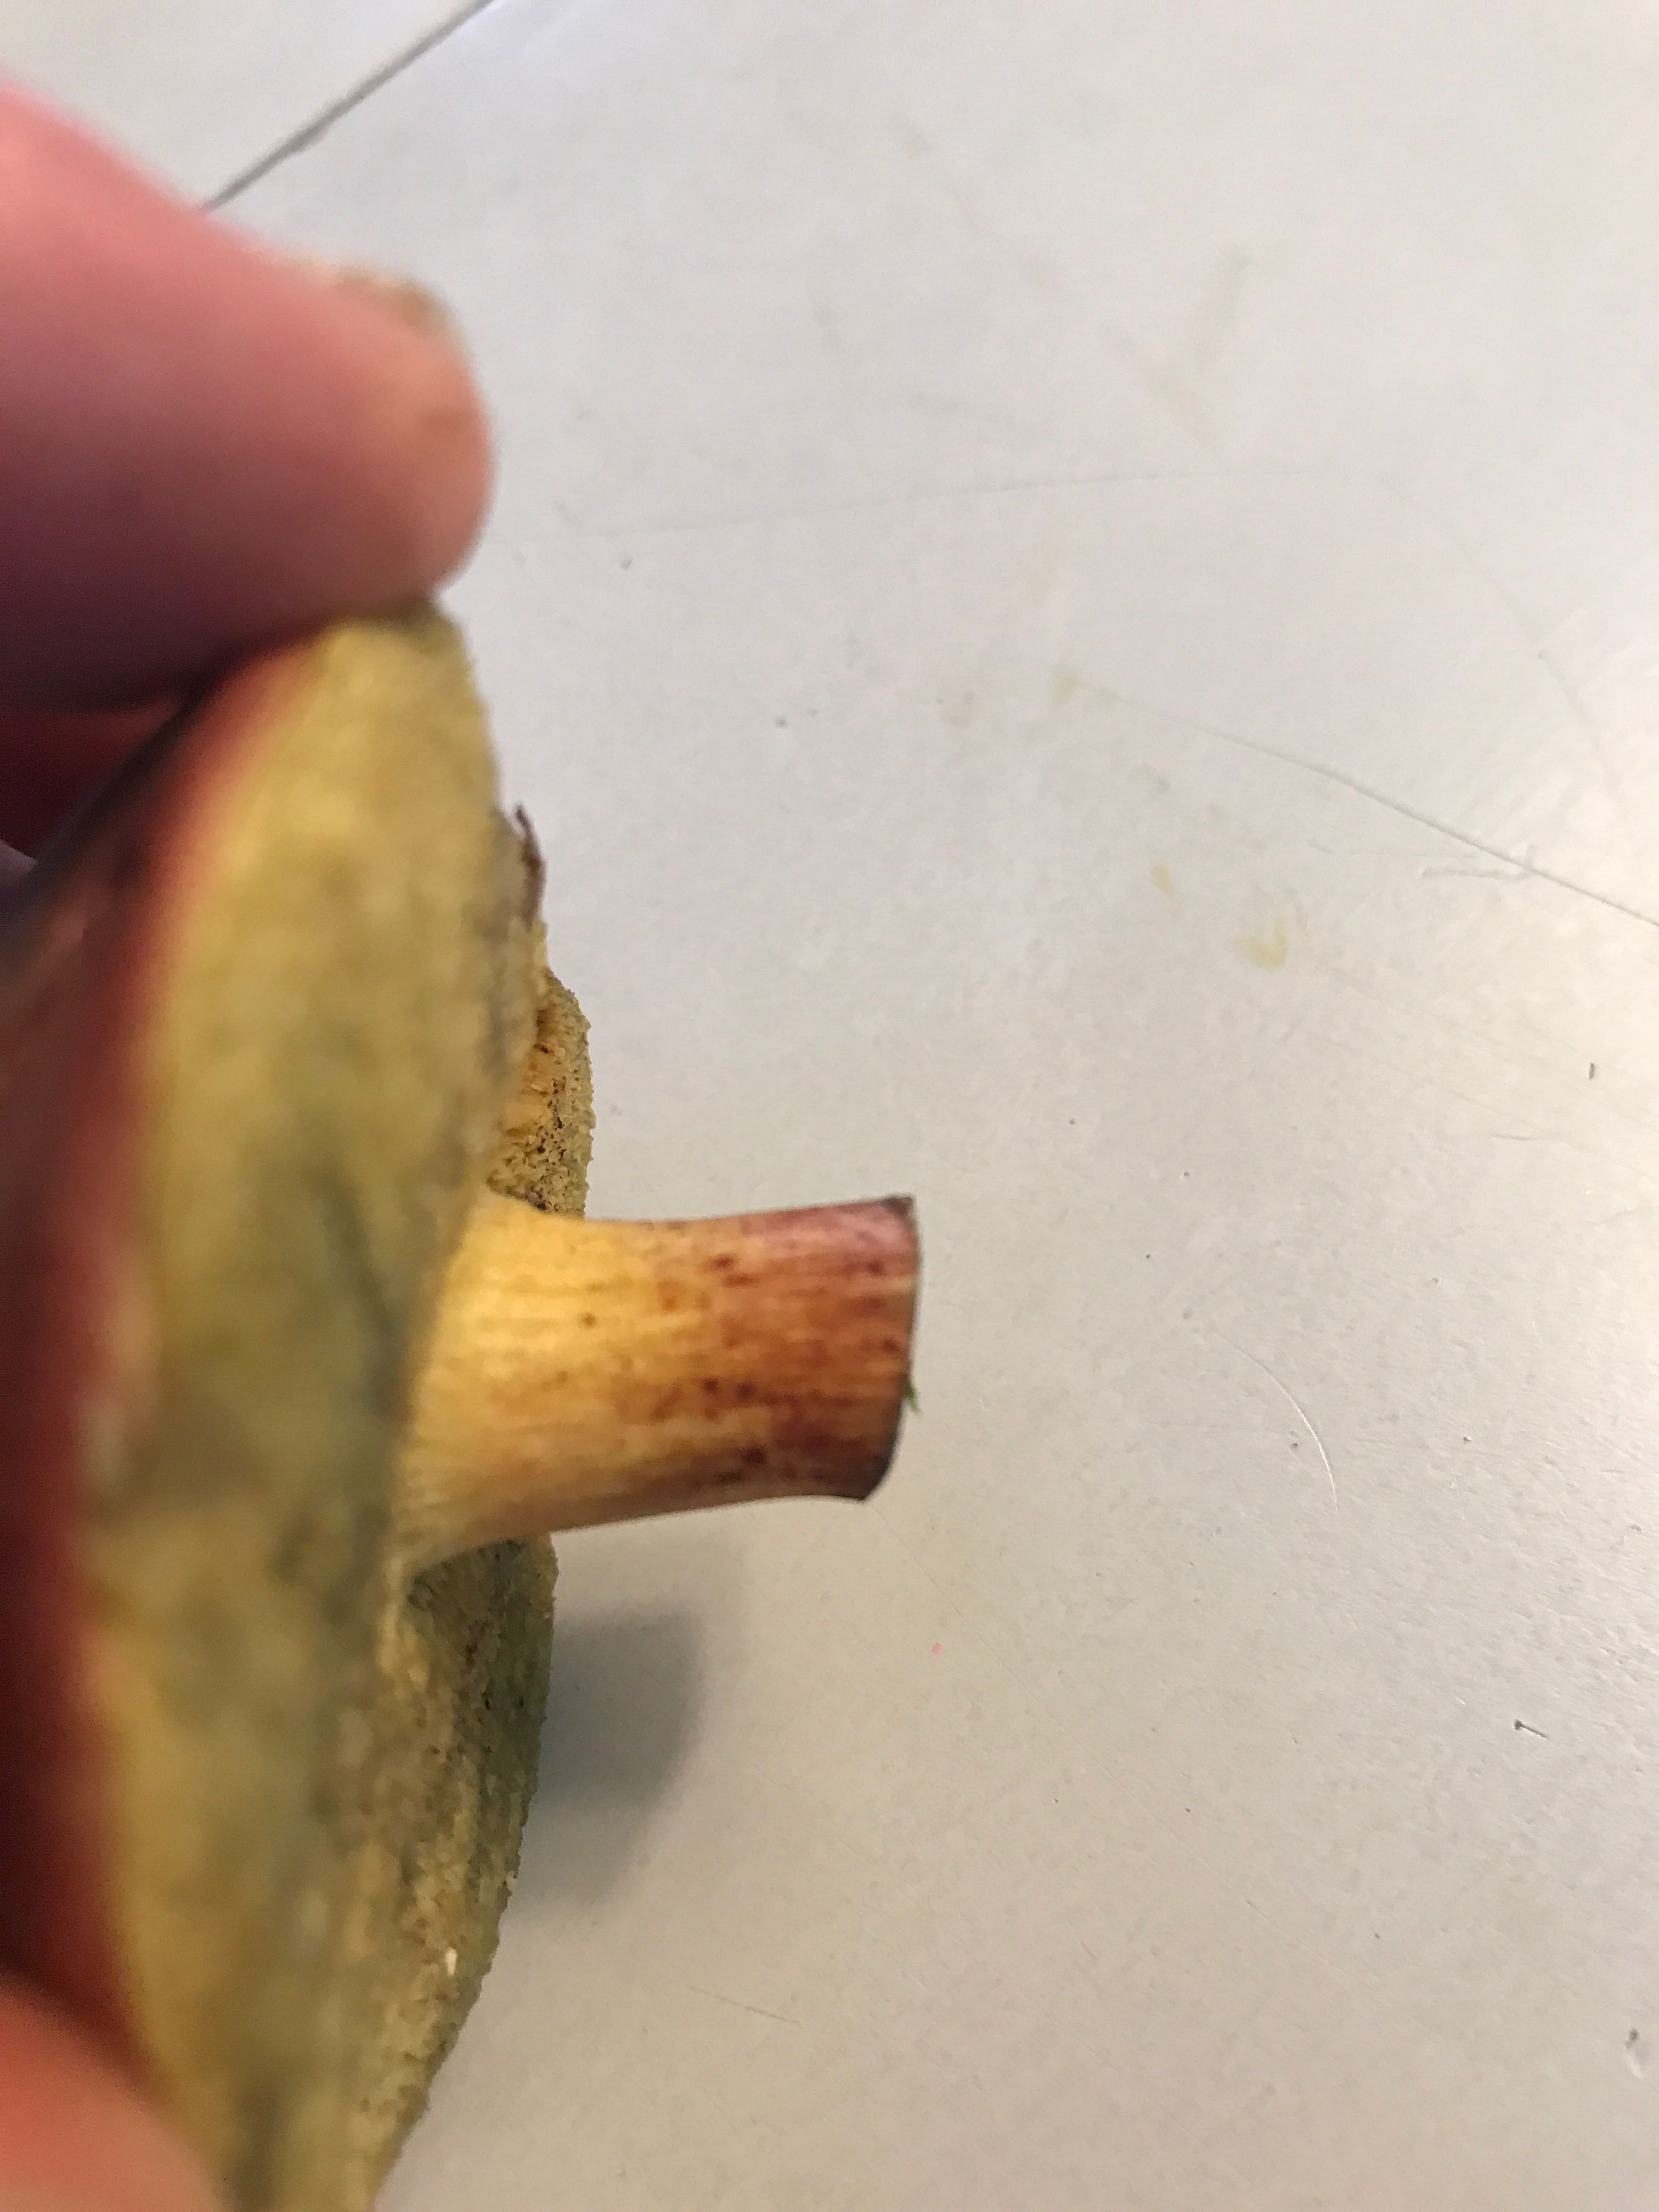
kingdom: Fungi
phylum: Basidiomycota
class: Agaricomycetes
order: Boletales
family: Boletaceae
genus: Xerocomellus
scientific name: Xerocomellus pruinatus
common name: dugget rørhat
